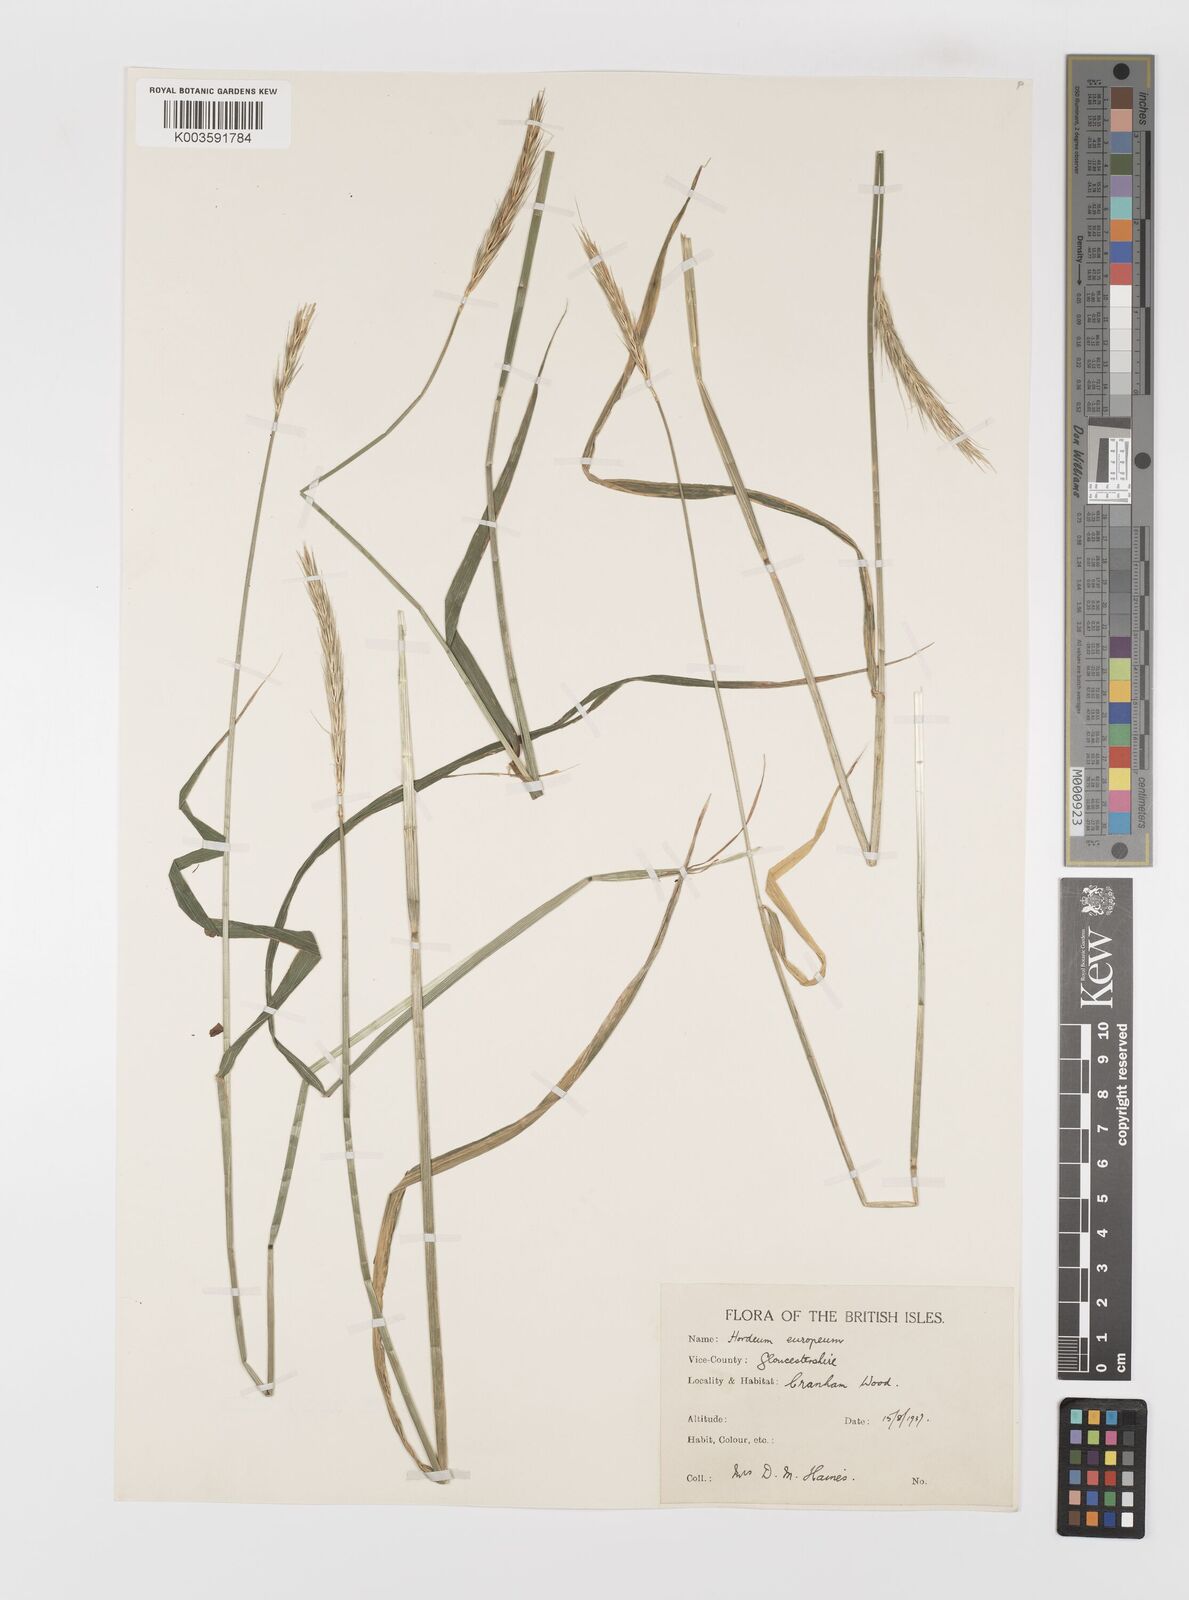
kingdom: Plantae
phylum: Tracheophyta
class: Liliopsida
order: Poales
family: Poaceae
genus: Hordelymus
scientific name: Hordelymus europaeus
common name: Wood-barley
